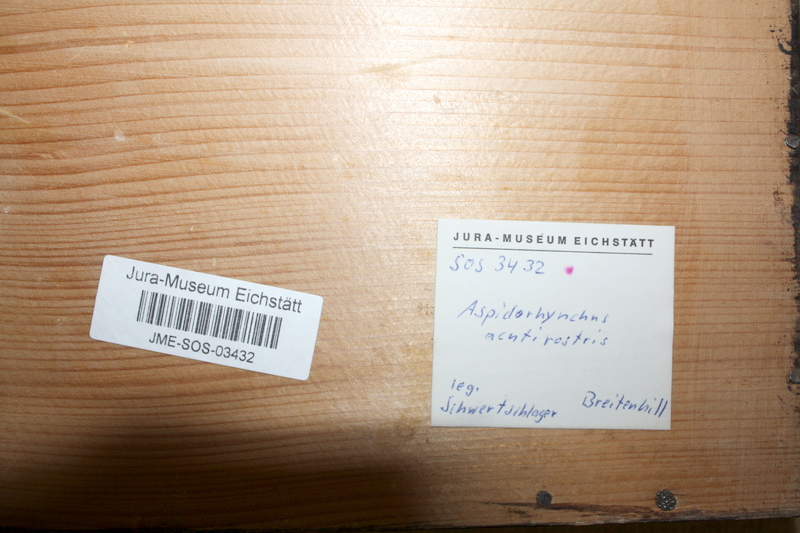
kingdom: Animalia
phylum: Chordata
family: Aspidorhynchidae
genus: Aspidorhynchus
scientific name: Aspidorhynchus acutirostris
